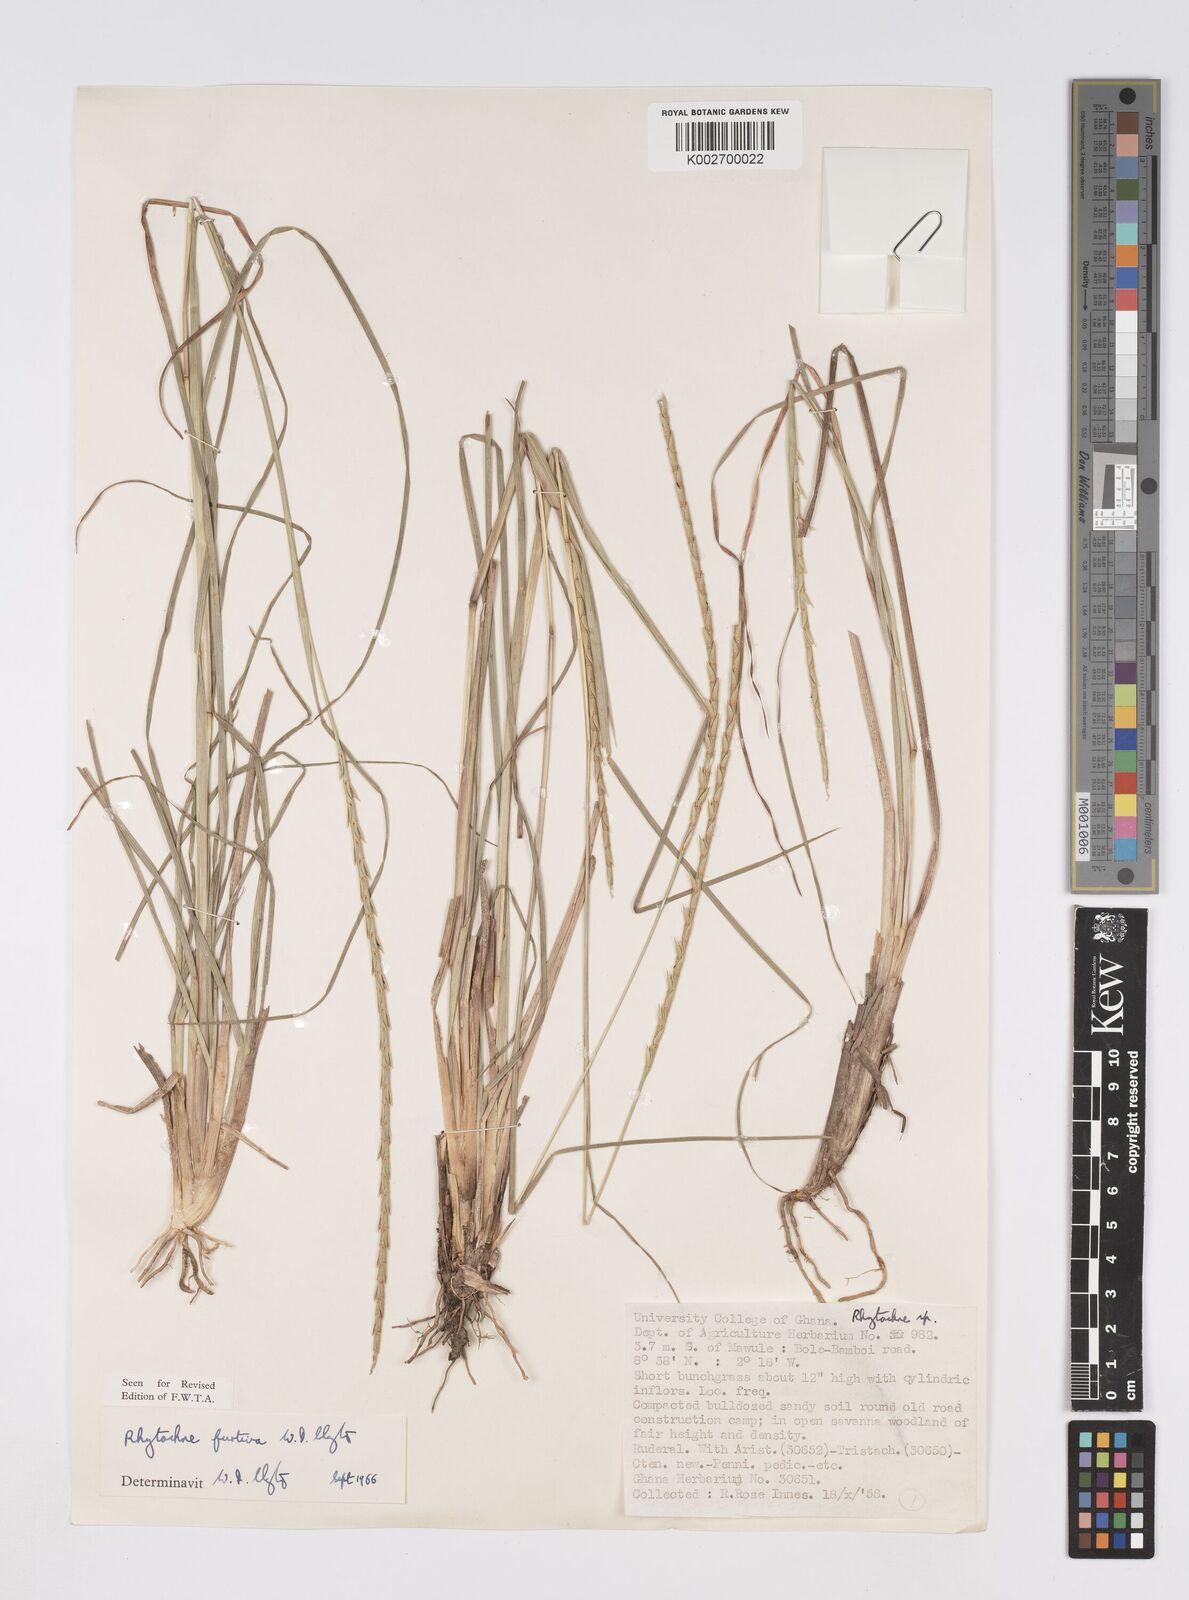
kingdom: Plantae
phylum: Tracheophyta
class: Liliopsida
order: Poales
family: Poaceae
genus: Rhytachne
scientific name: Rhytachne furtiva
